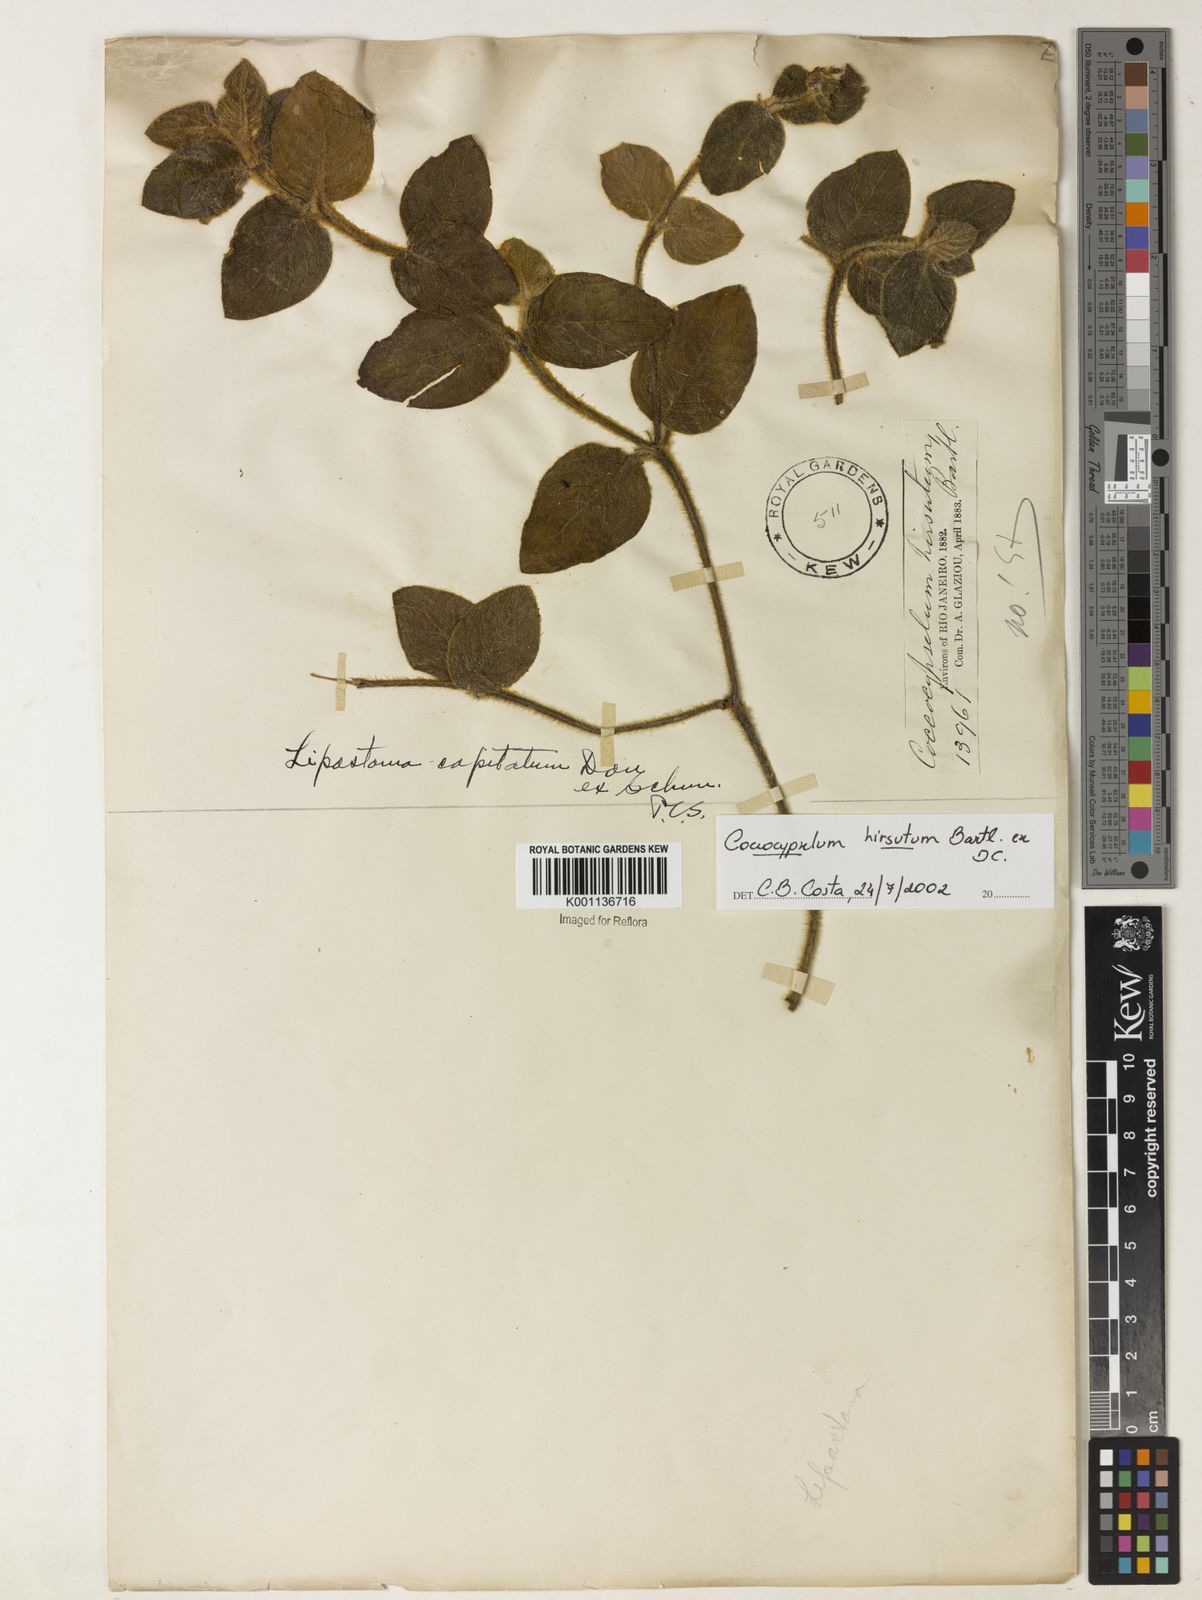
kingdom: Plantae
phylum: Tracheophyta
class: Magnoliopsida
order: Gentianales
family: Rubiaceae
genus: Coccocypselum
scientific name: Coccocypselum hirsutum
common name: Yerba de guava
